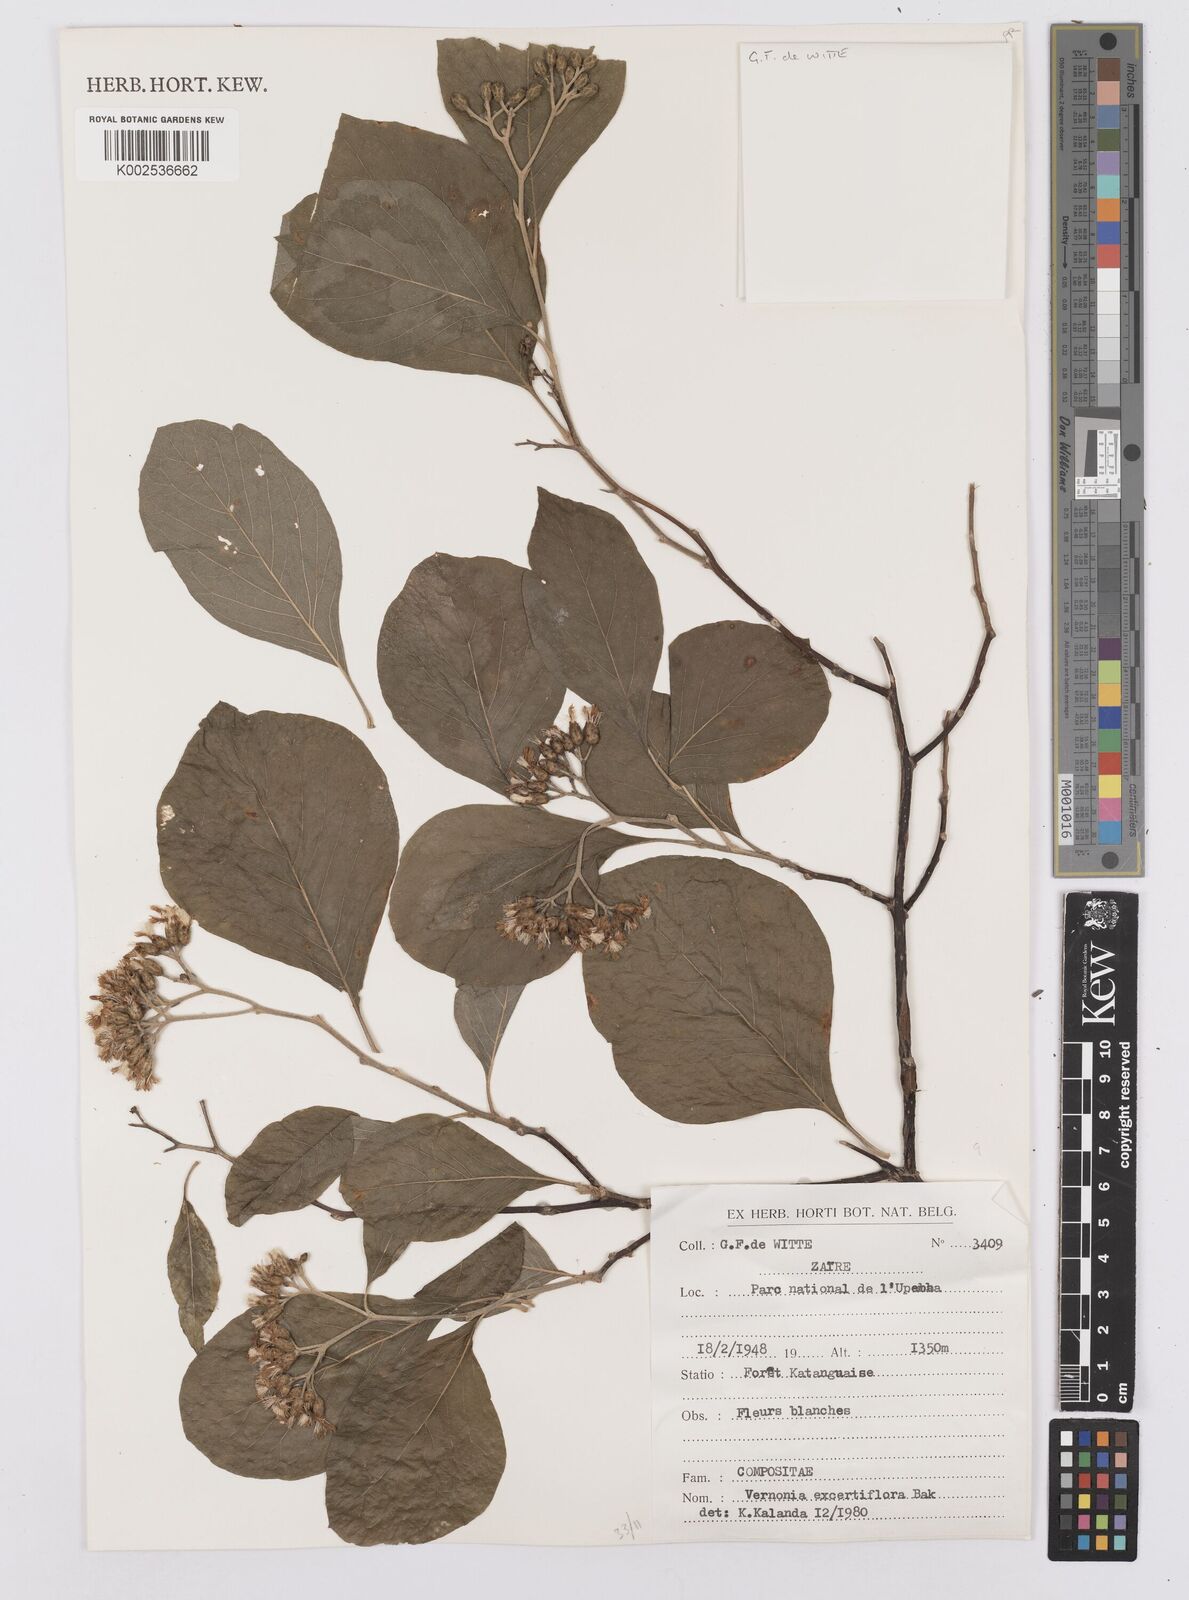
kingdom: Plantae
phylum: Tracheophyta
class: Magnoliopsida
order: Asterales
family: Asteraceae
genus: Gymnanthemum
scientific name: Gymnanthemum exsertiflorum
